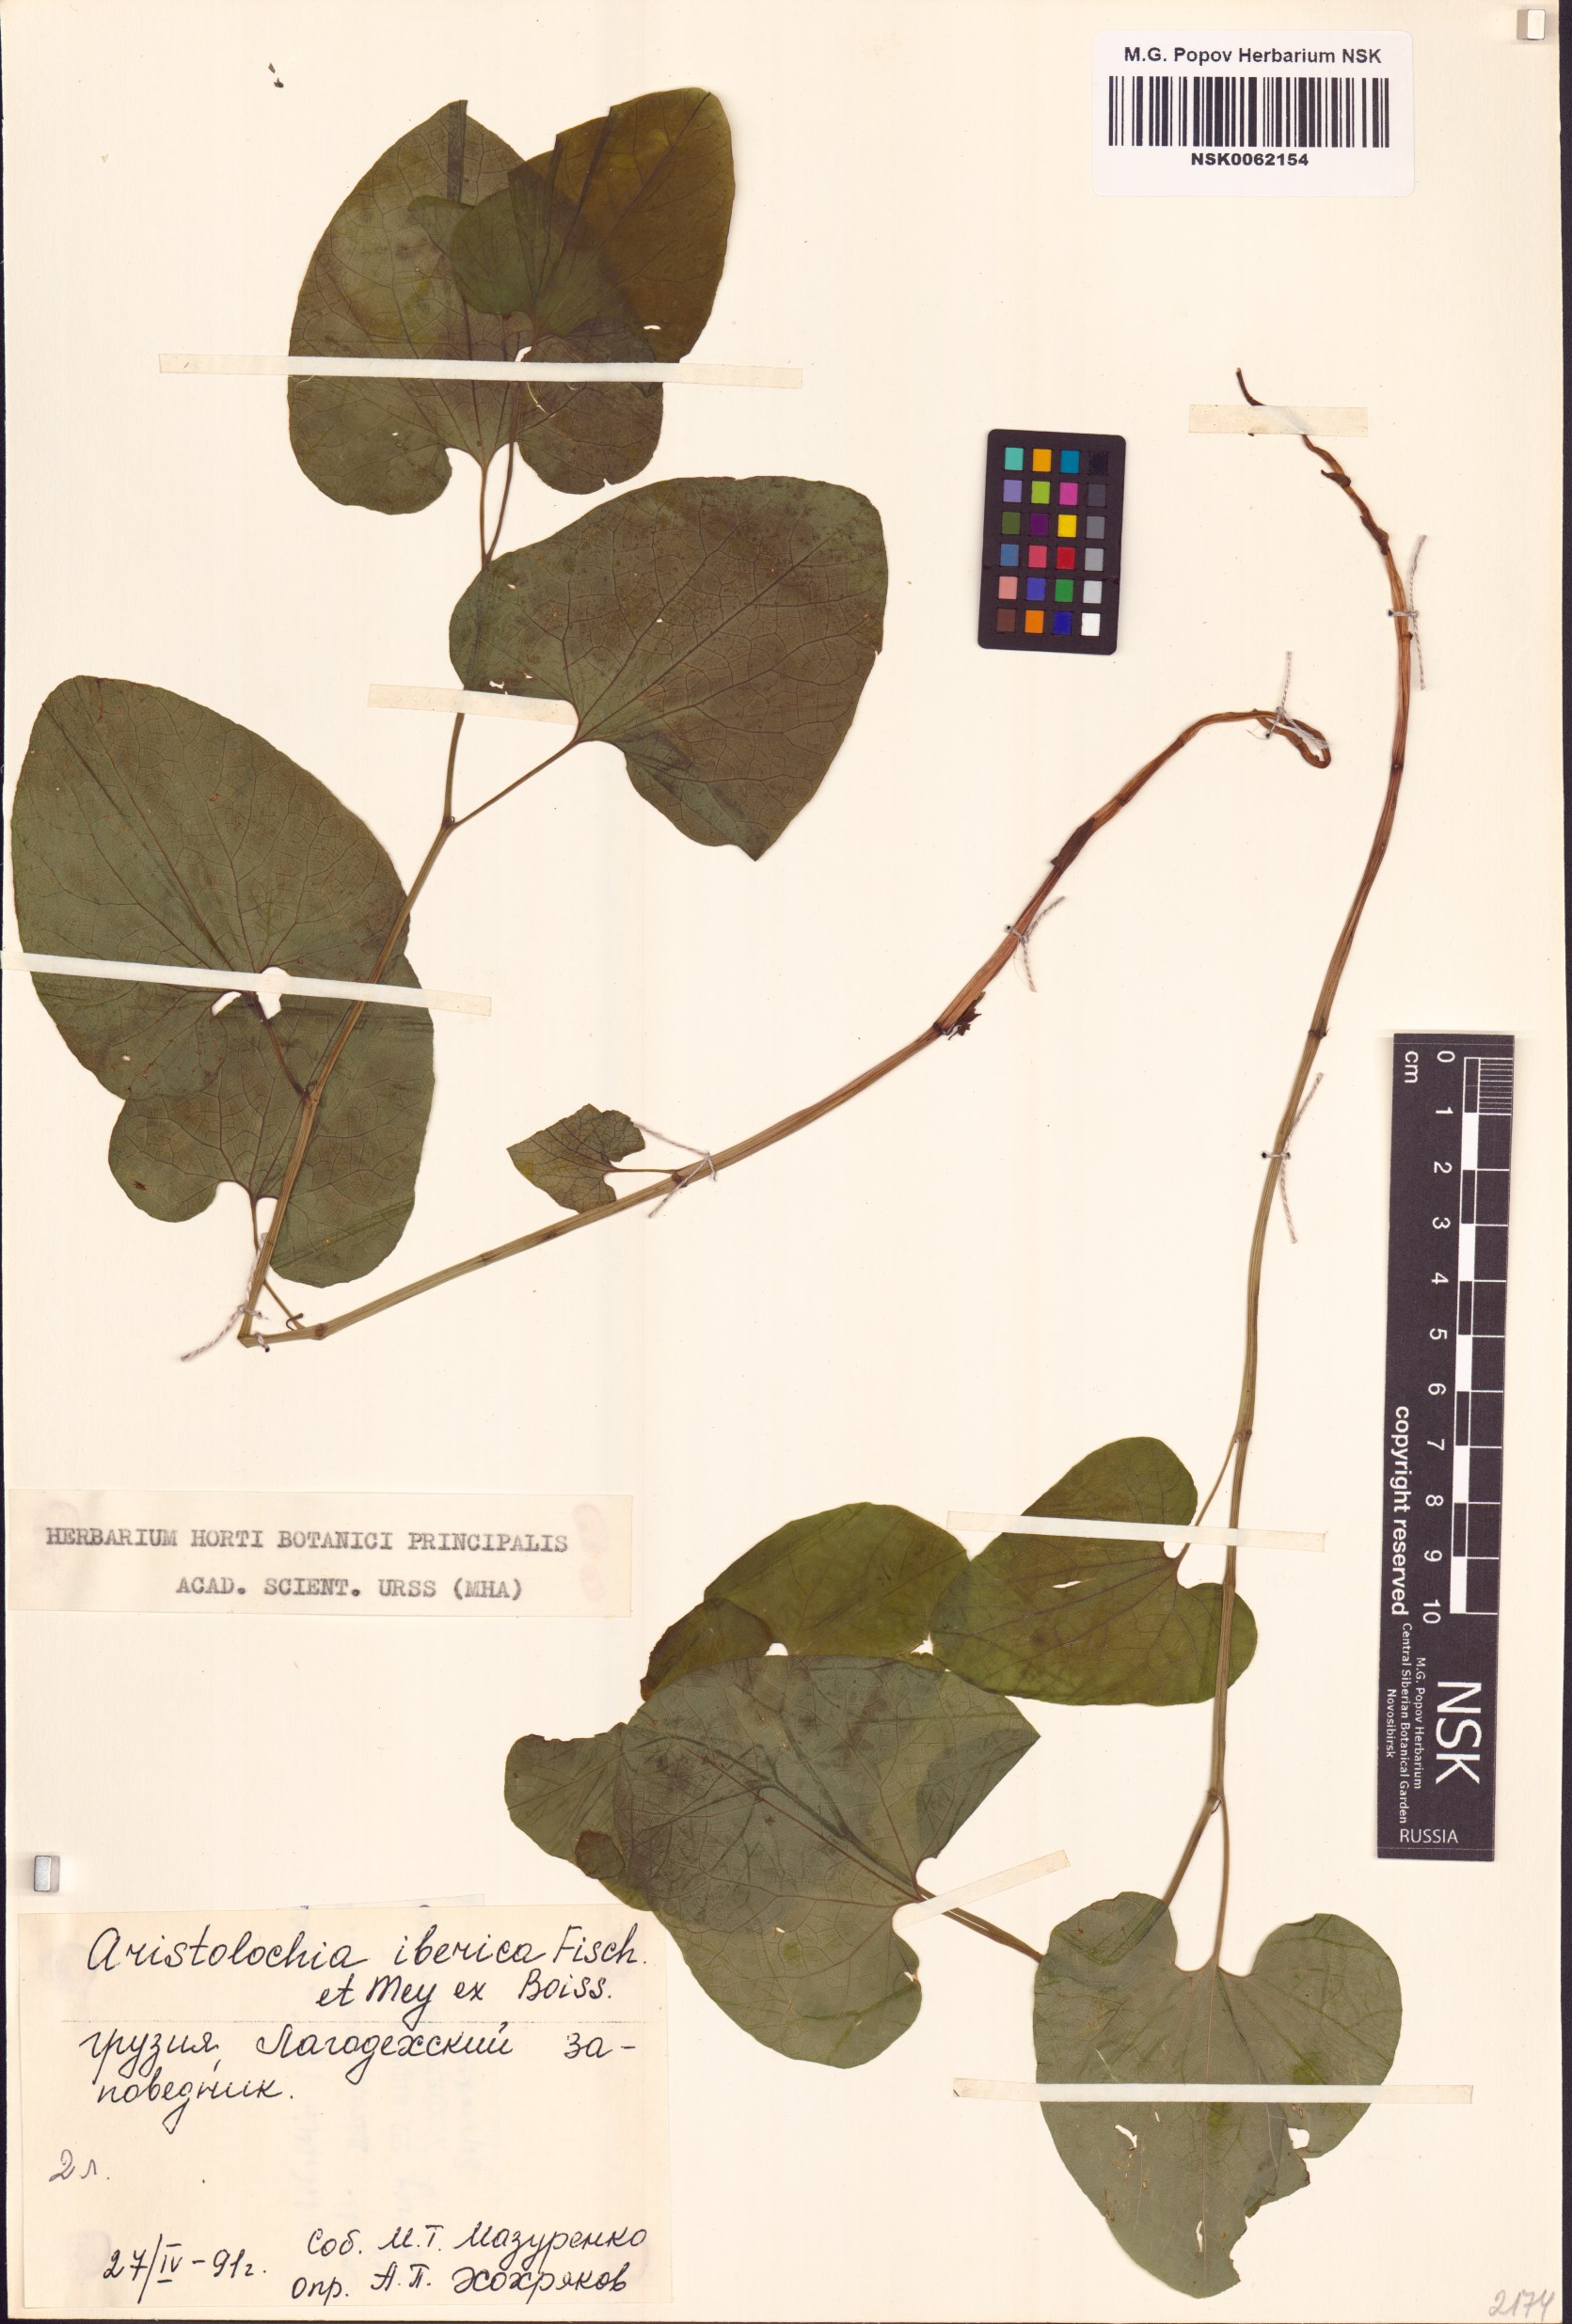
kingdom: Plantae
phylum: Tracheophyta
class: Magnoliopsida
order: Piperales
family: Aristolochiaceae
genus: Aristolochia
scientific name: Aristolochia iberica
